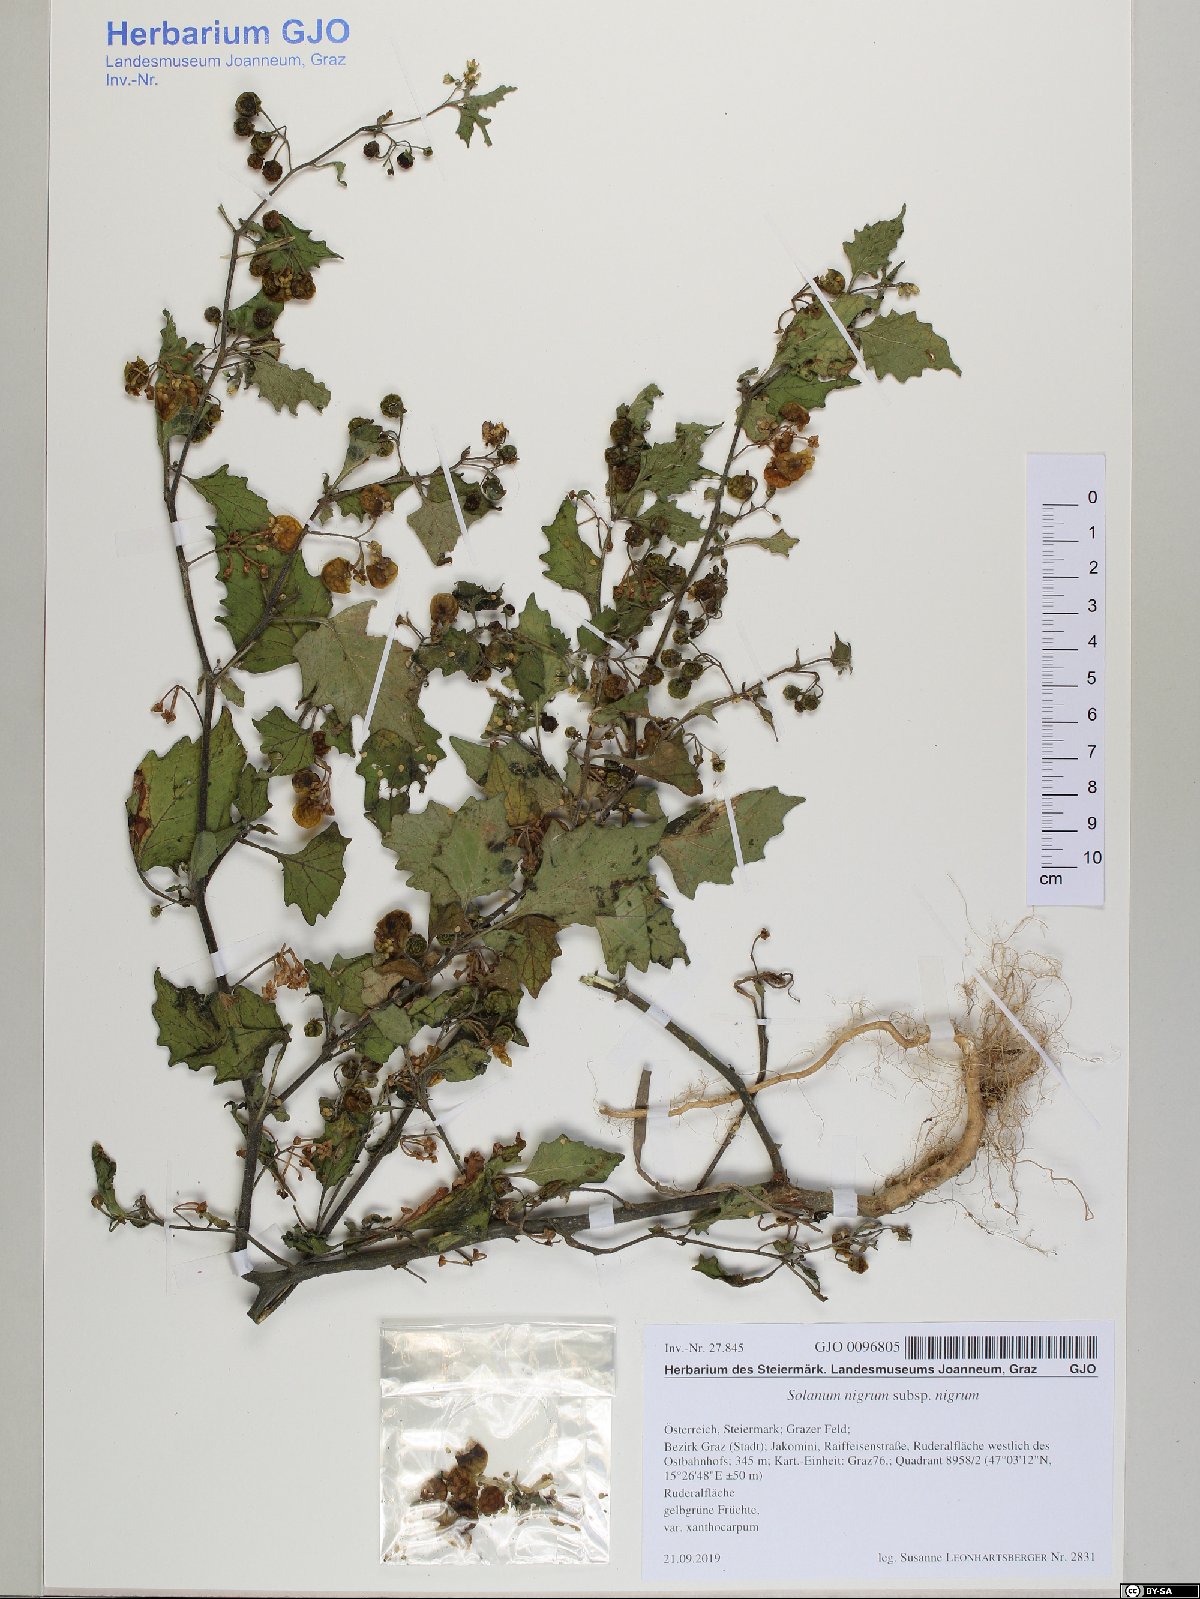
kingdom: Plantae
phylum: Tracheophyta
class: Magnoliopsida
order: Solanales
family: Solanaceae
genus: Solanum
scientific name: Solanum nigrum
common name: Black nightshade
